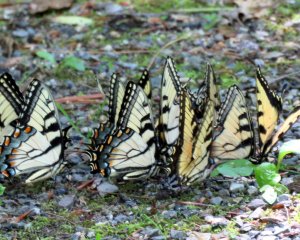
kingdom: Animalia
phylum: Arthropoda
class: Insecta
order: Lepidoptera
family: Papilionidae
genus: Pterourus
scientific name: Pterourus glaucus
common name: Eastern Tiger Swallowtail
